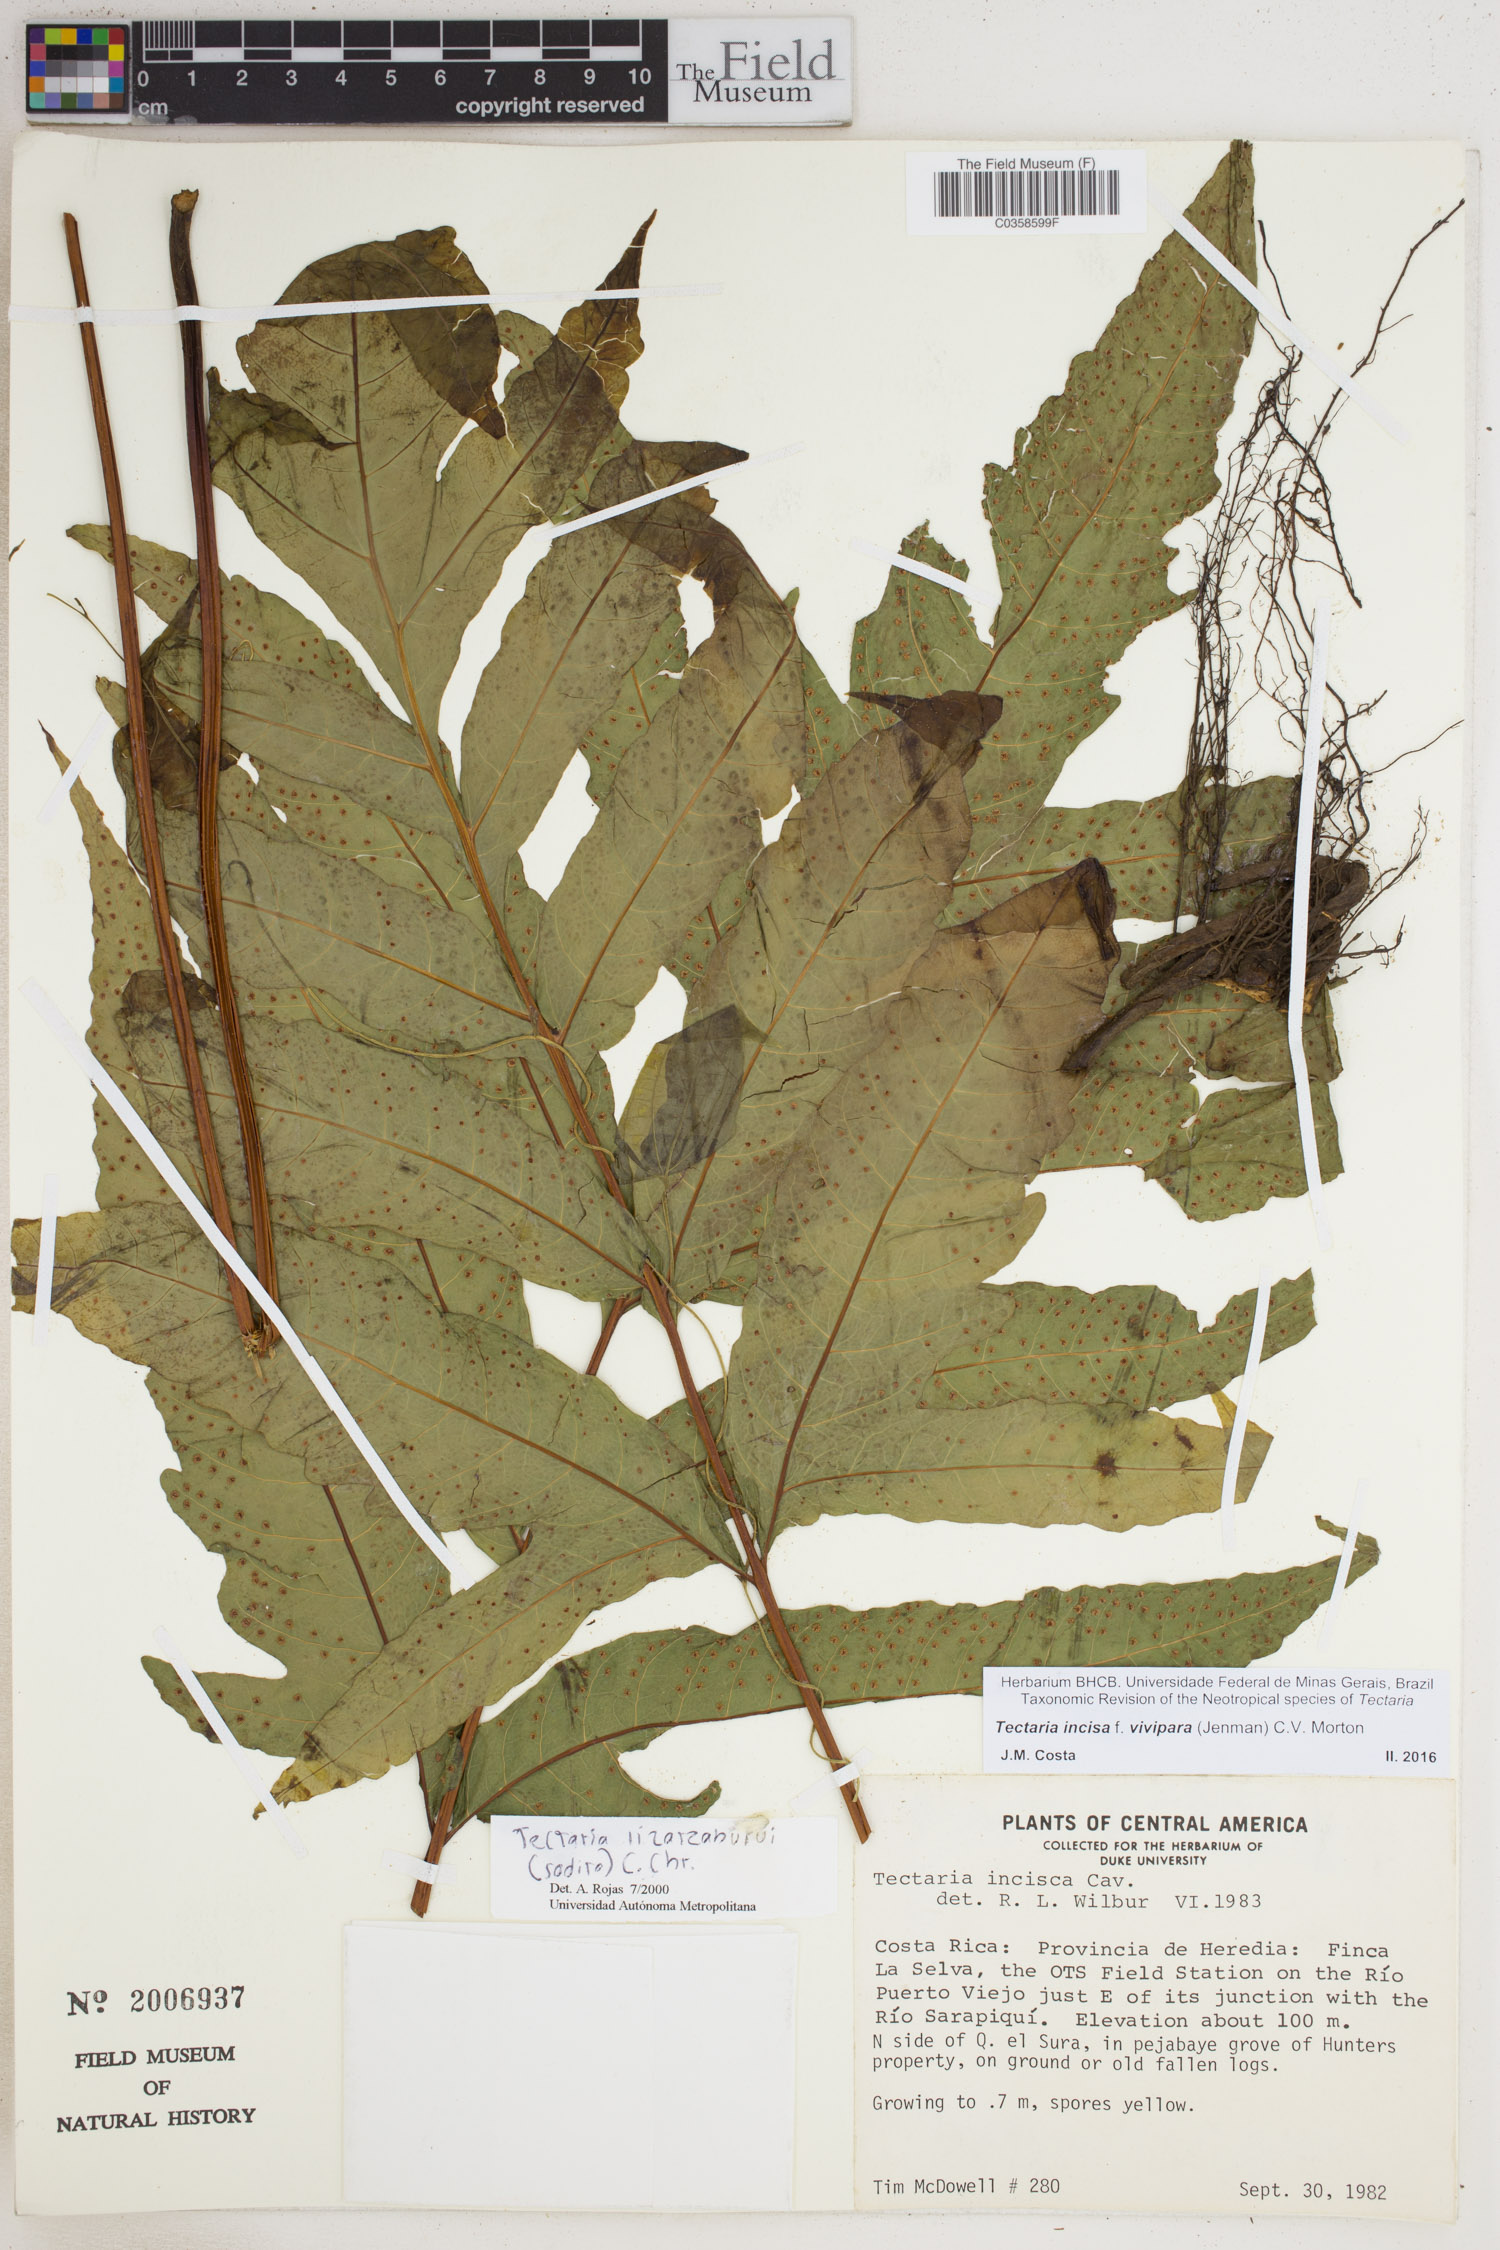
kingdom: Plantae
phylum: Tracheophyta
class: Polypodiopsida
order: Polypodiales
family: Tectariaceae
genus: Tectaria
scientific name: Tectaria incisa
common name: Incised halberd fern
